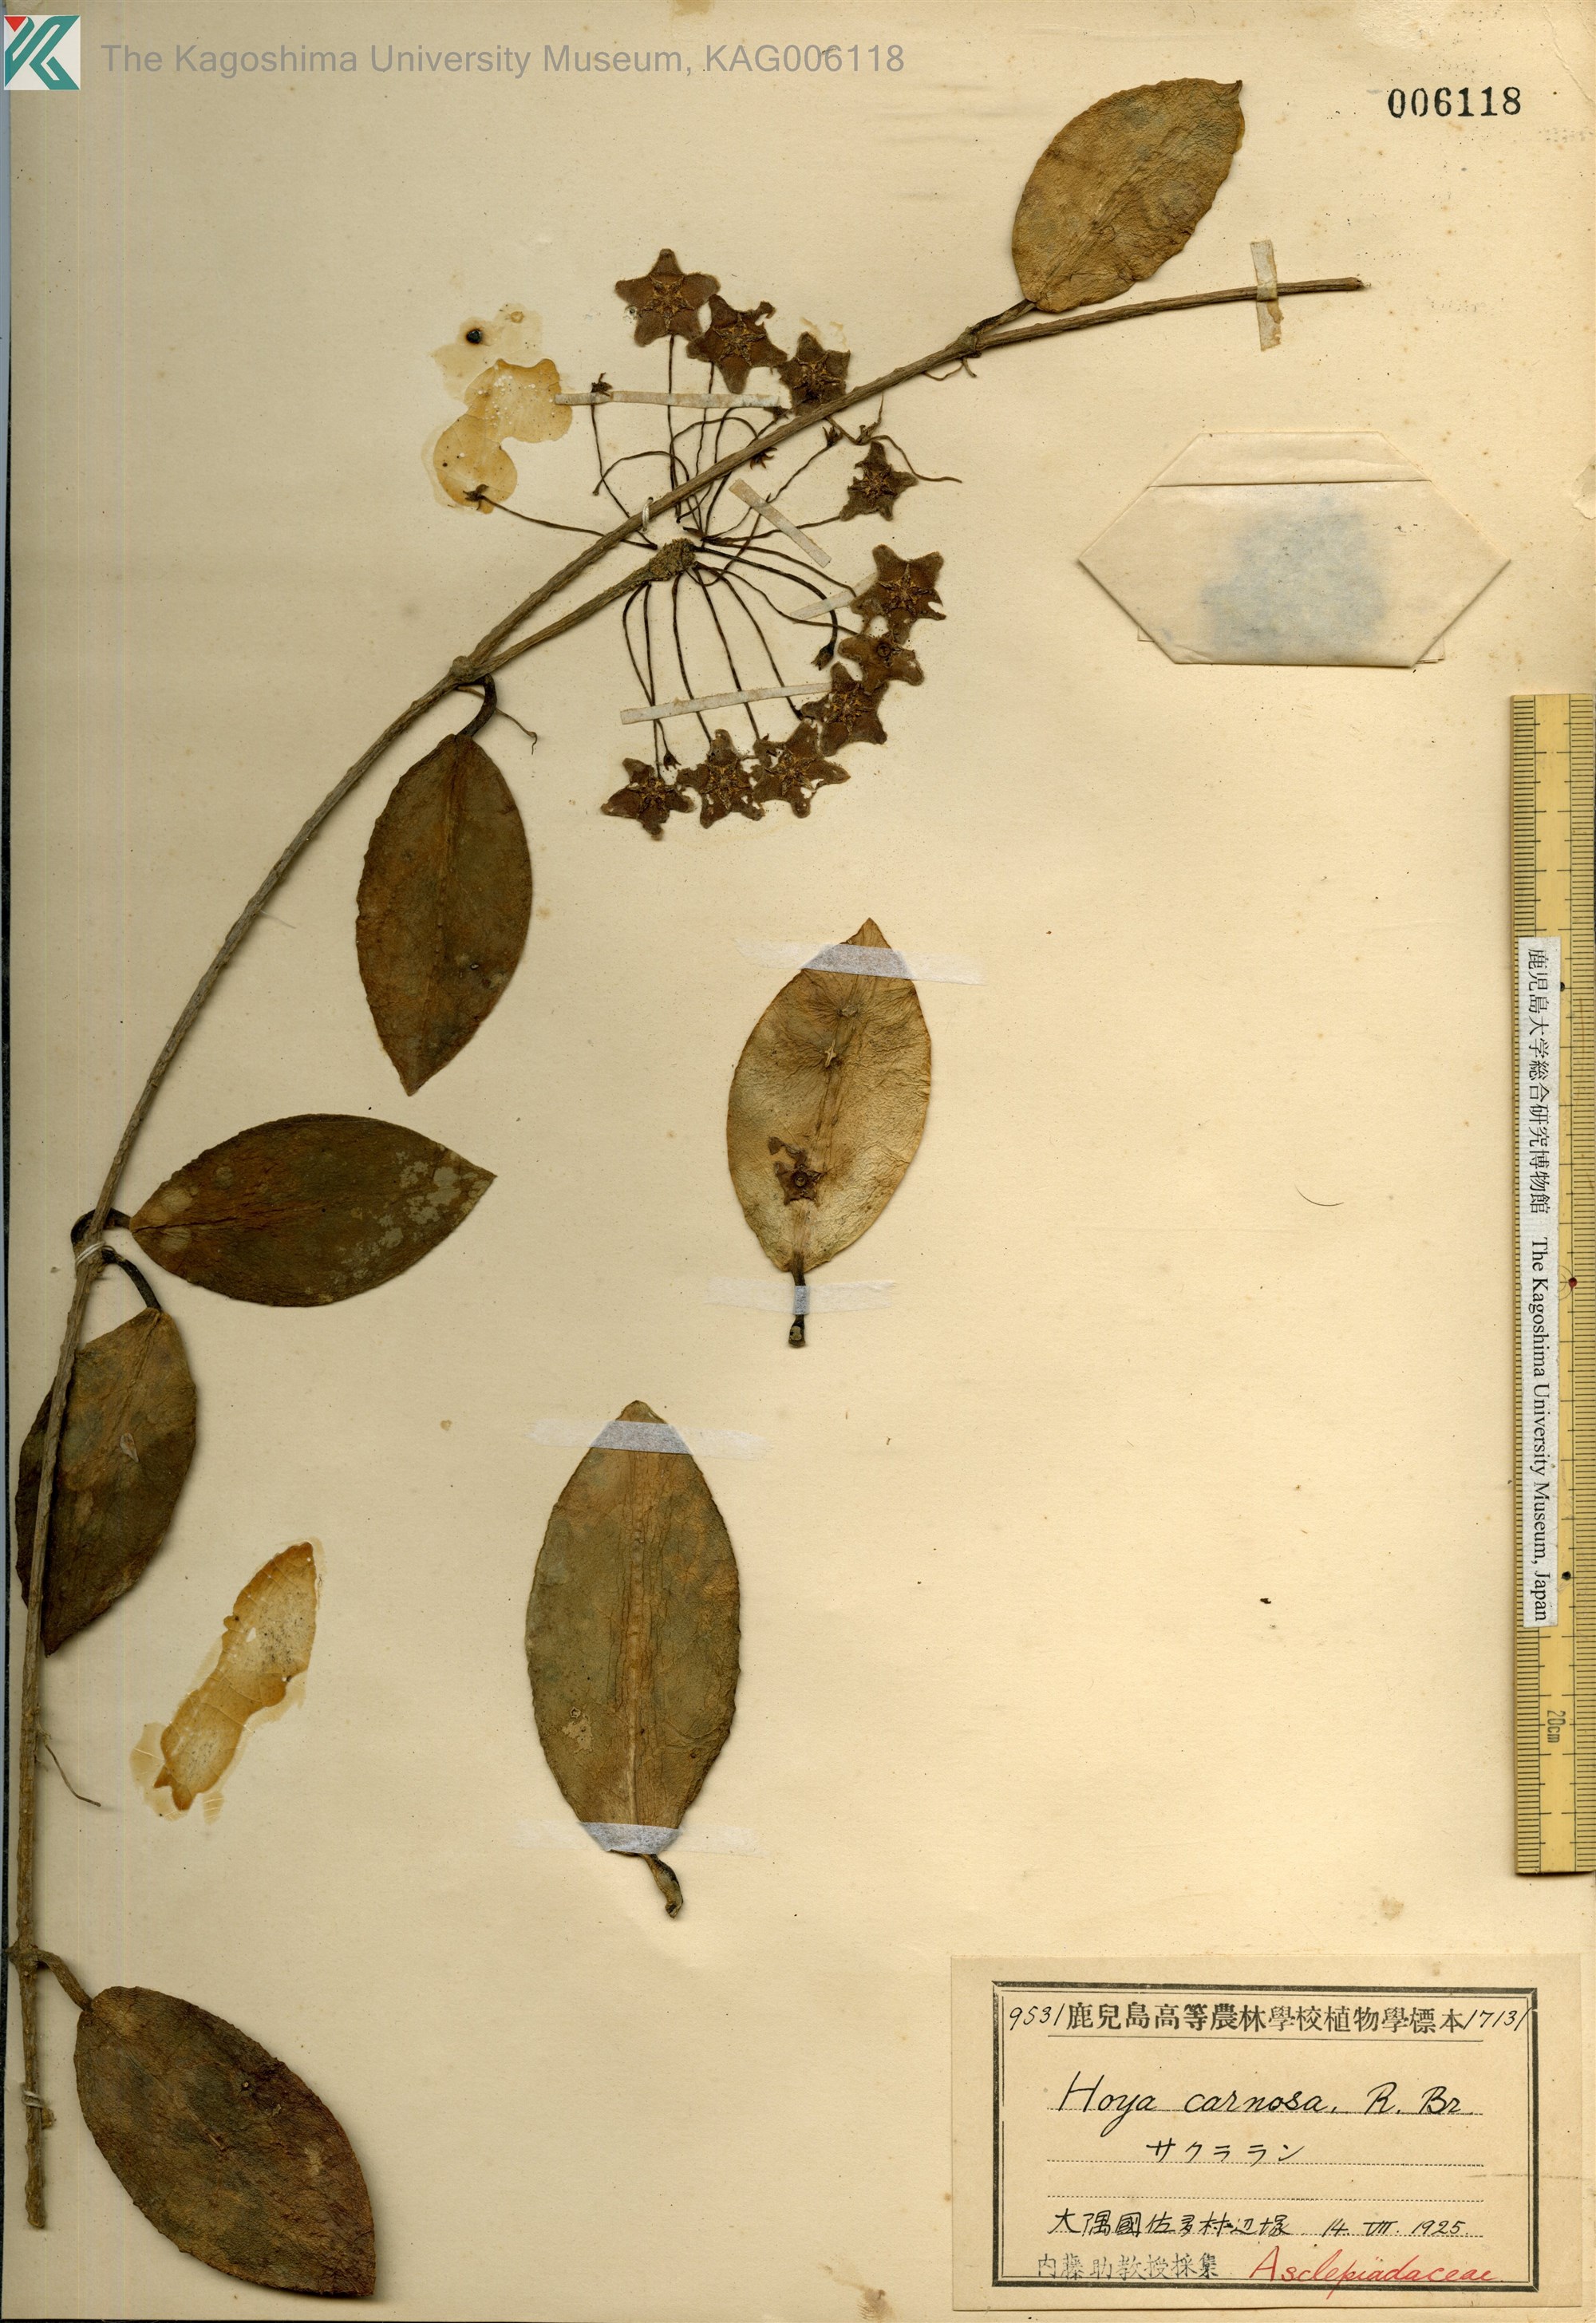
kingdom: Plantae
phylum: Tracheophyta
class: Magnoliopsida
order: Gentianales
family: Apocynaceae
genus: Hoya
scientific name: Hoya carnosa
